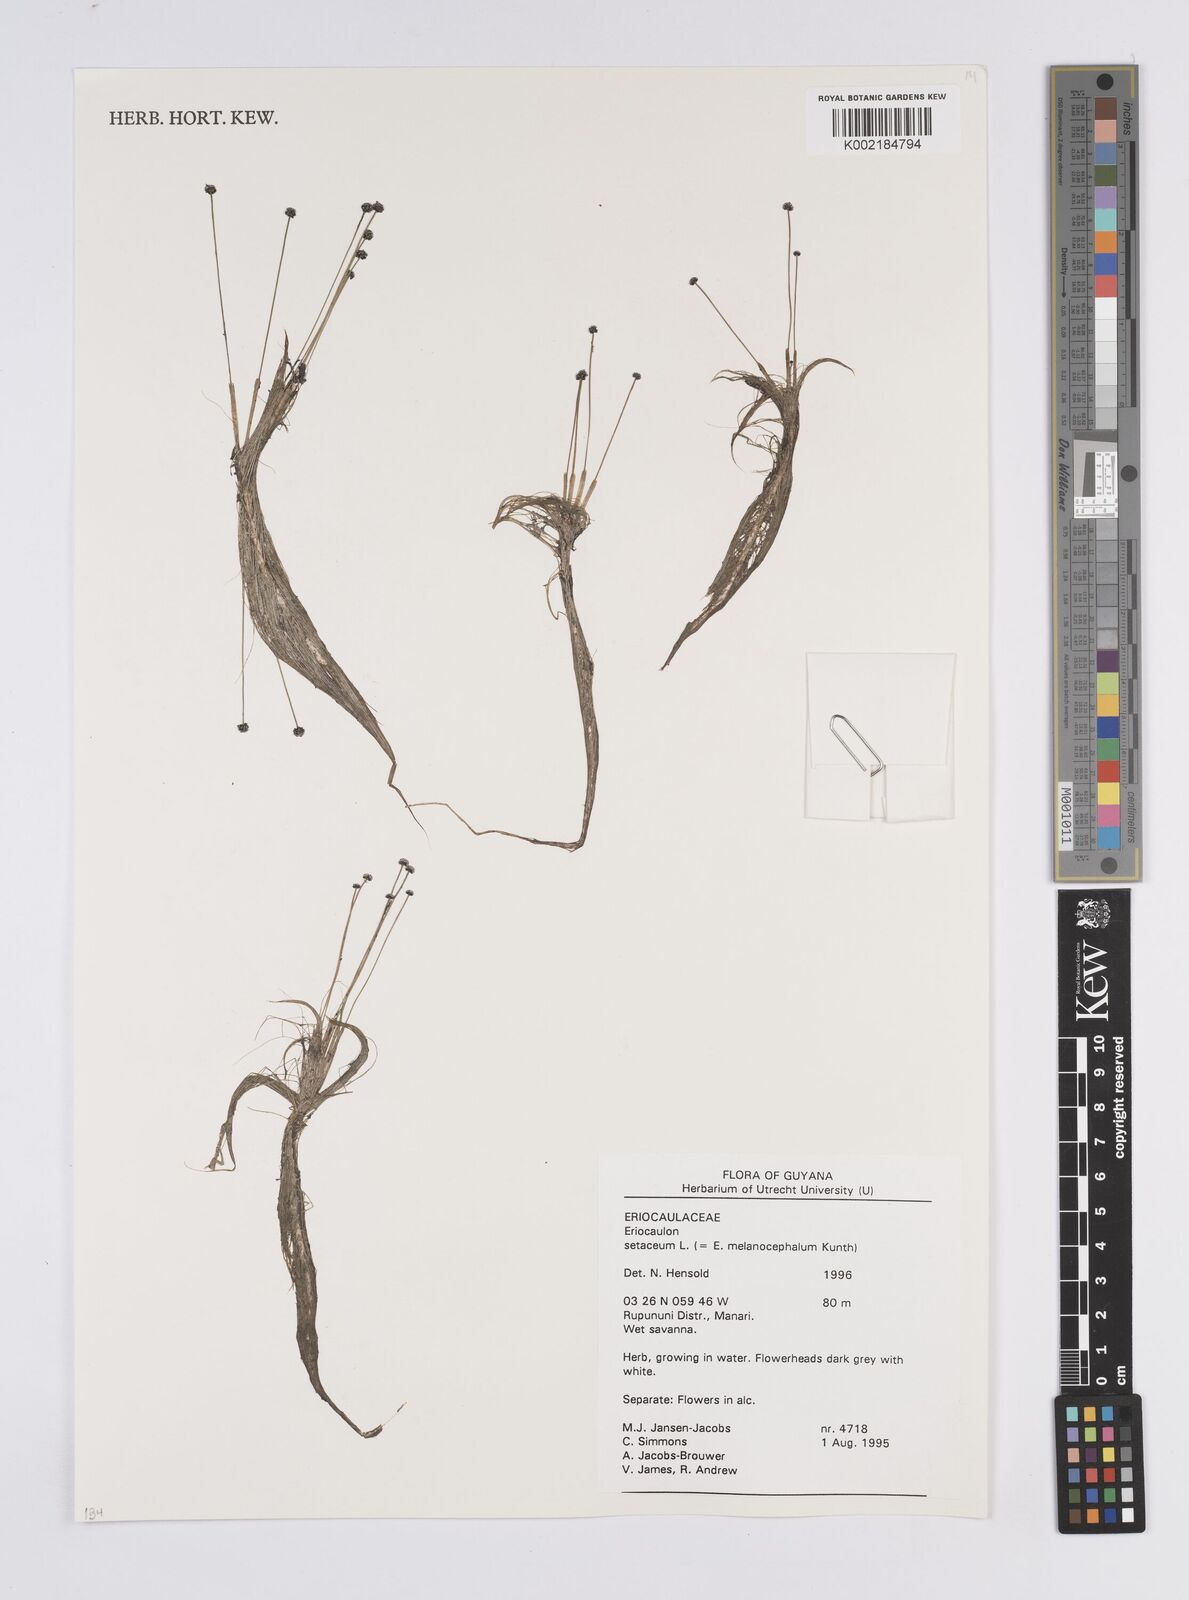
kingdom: Plantae
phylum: Tracheophyta
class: Liliopsida
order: Poales
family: Eriocaulaceae
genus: Eriocaulon
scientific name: Eriocaulon setaceum
